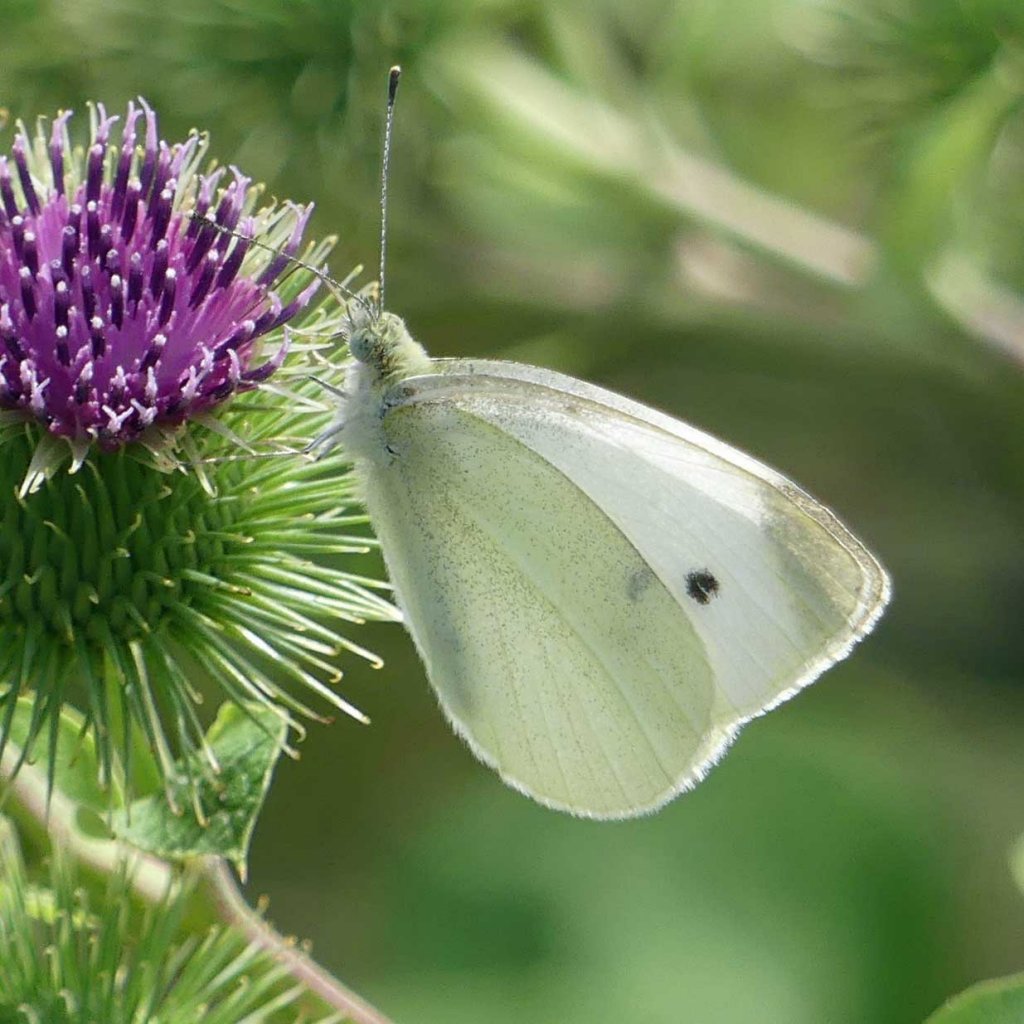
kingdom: Animalia
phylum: Arthropoda
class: Insecta
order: Lepidoptera
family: Pieridae
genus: Pieris
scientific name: Pieris rapae
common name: Cabbage White
